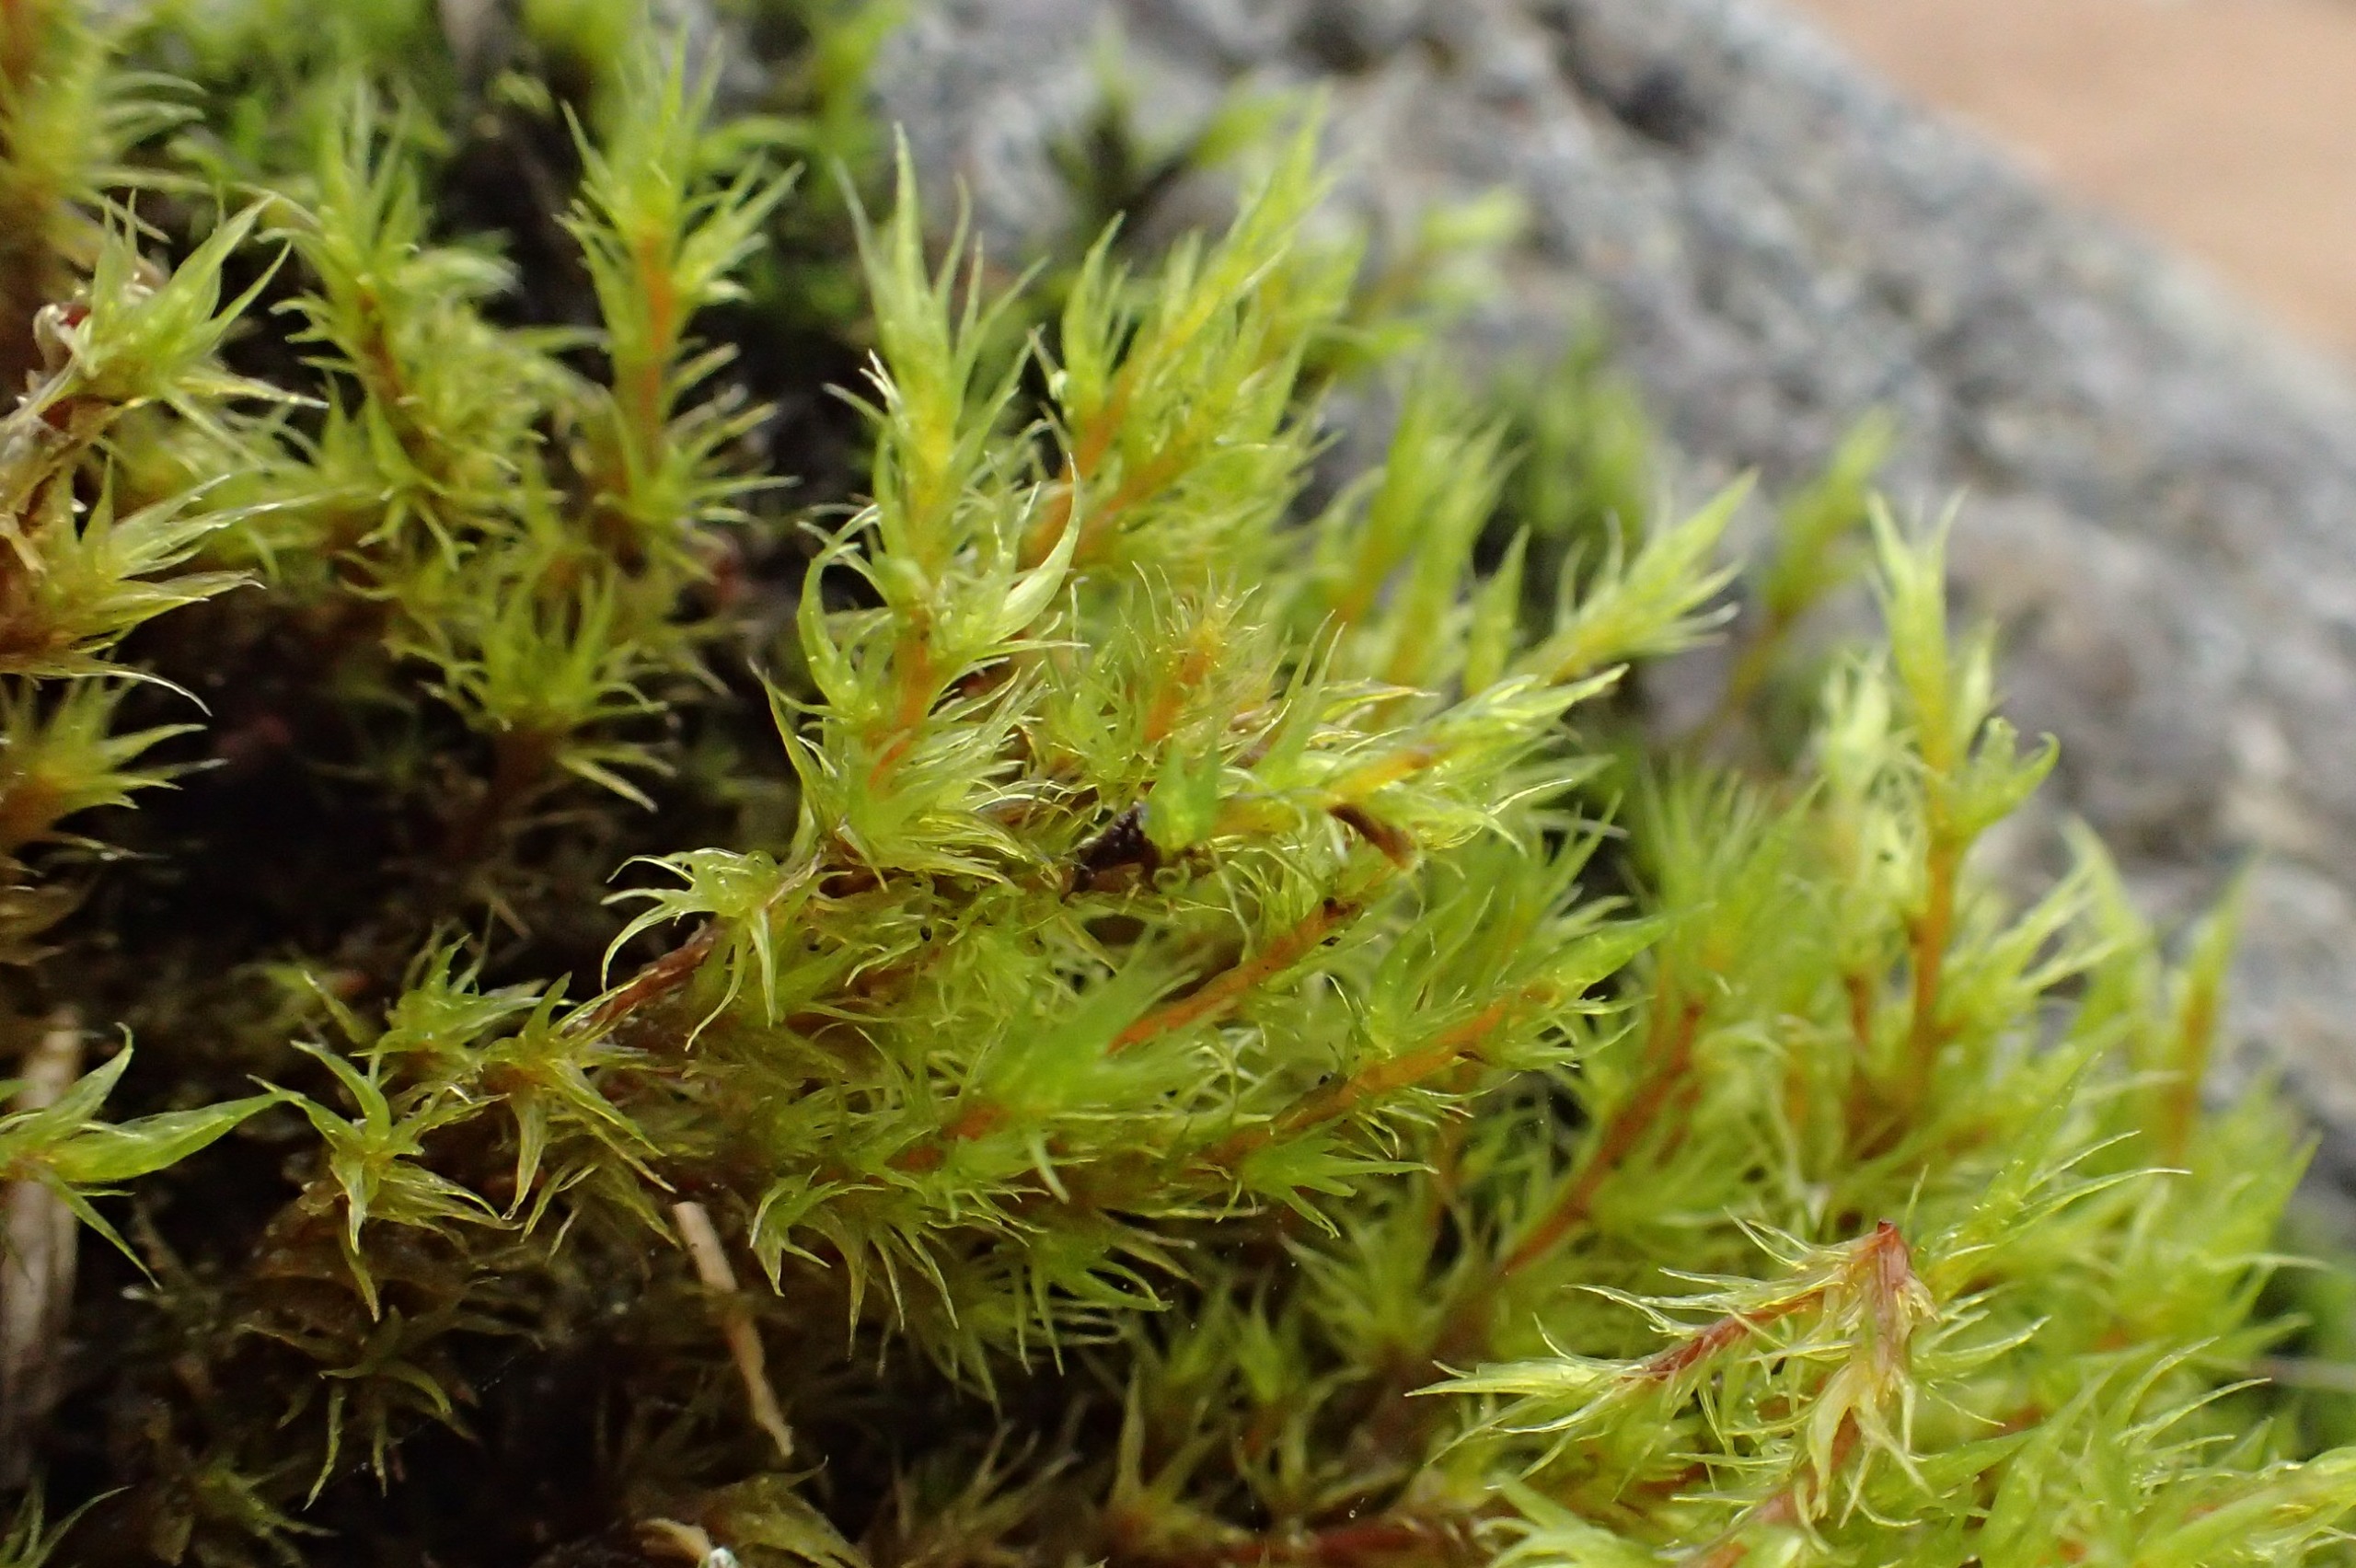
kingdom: Plantae
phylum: Bryophyta
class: Bryopsida
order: Grimmiales
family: Grimmiaceae
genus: Dilutineuron
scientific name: Dilutineuron fasciculare
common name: Knippe-børstemos
